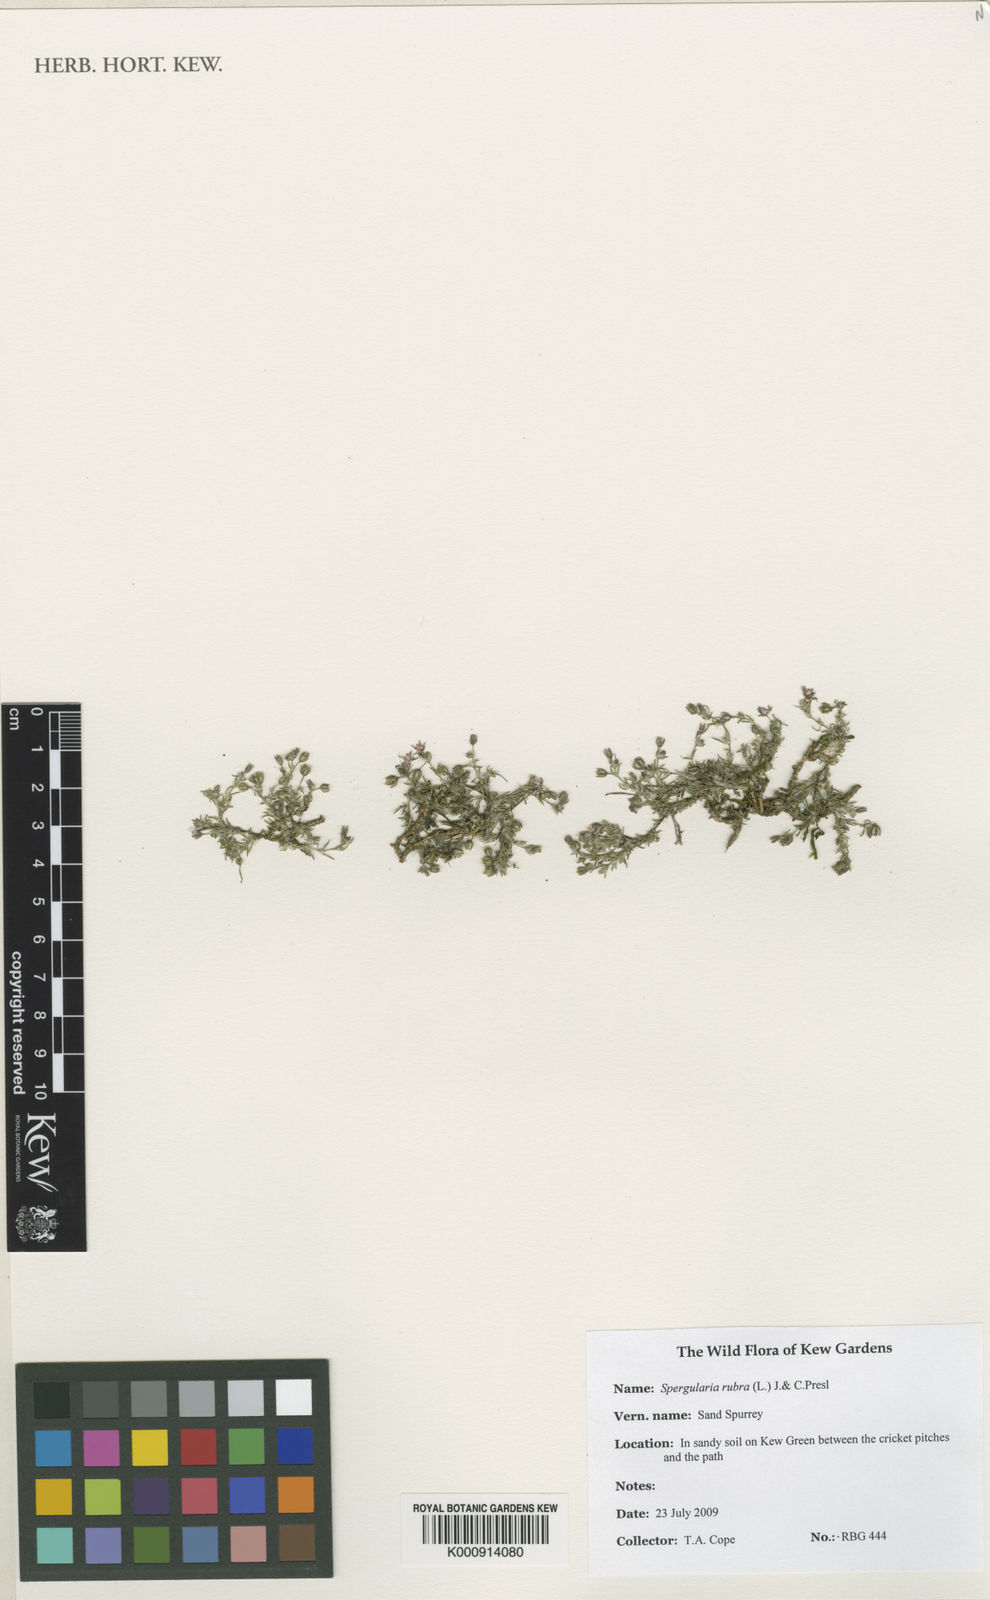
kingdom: Plantae
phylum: Tracheophyta
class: Magnoliopsida
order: Caryophyllales
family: Caryophyllaceae
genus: Spergularia
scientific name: Spergularia rubra
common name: Red sand-spurrey
